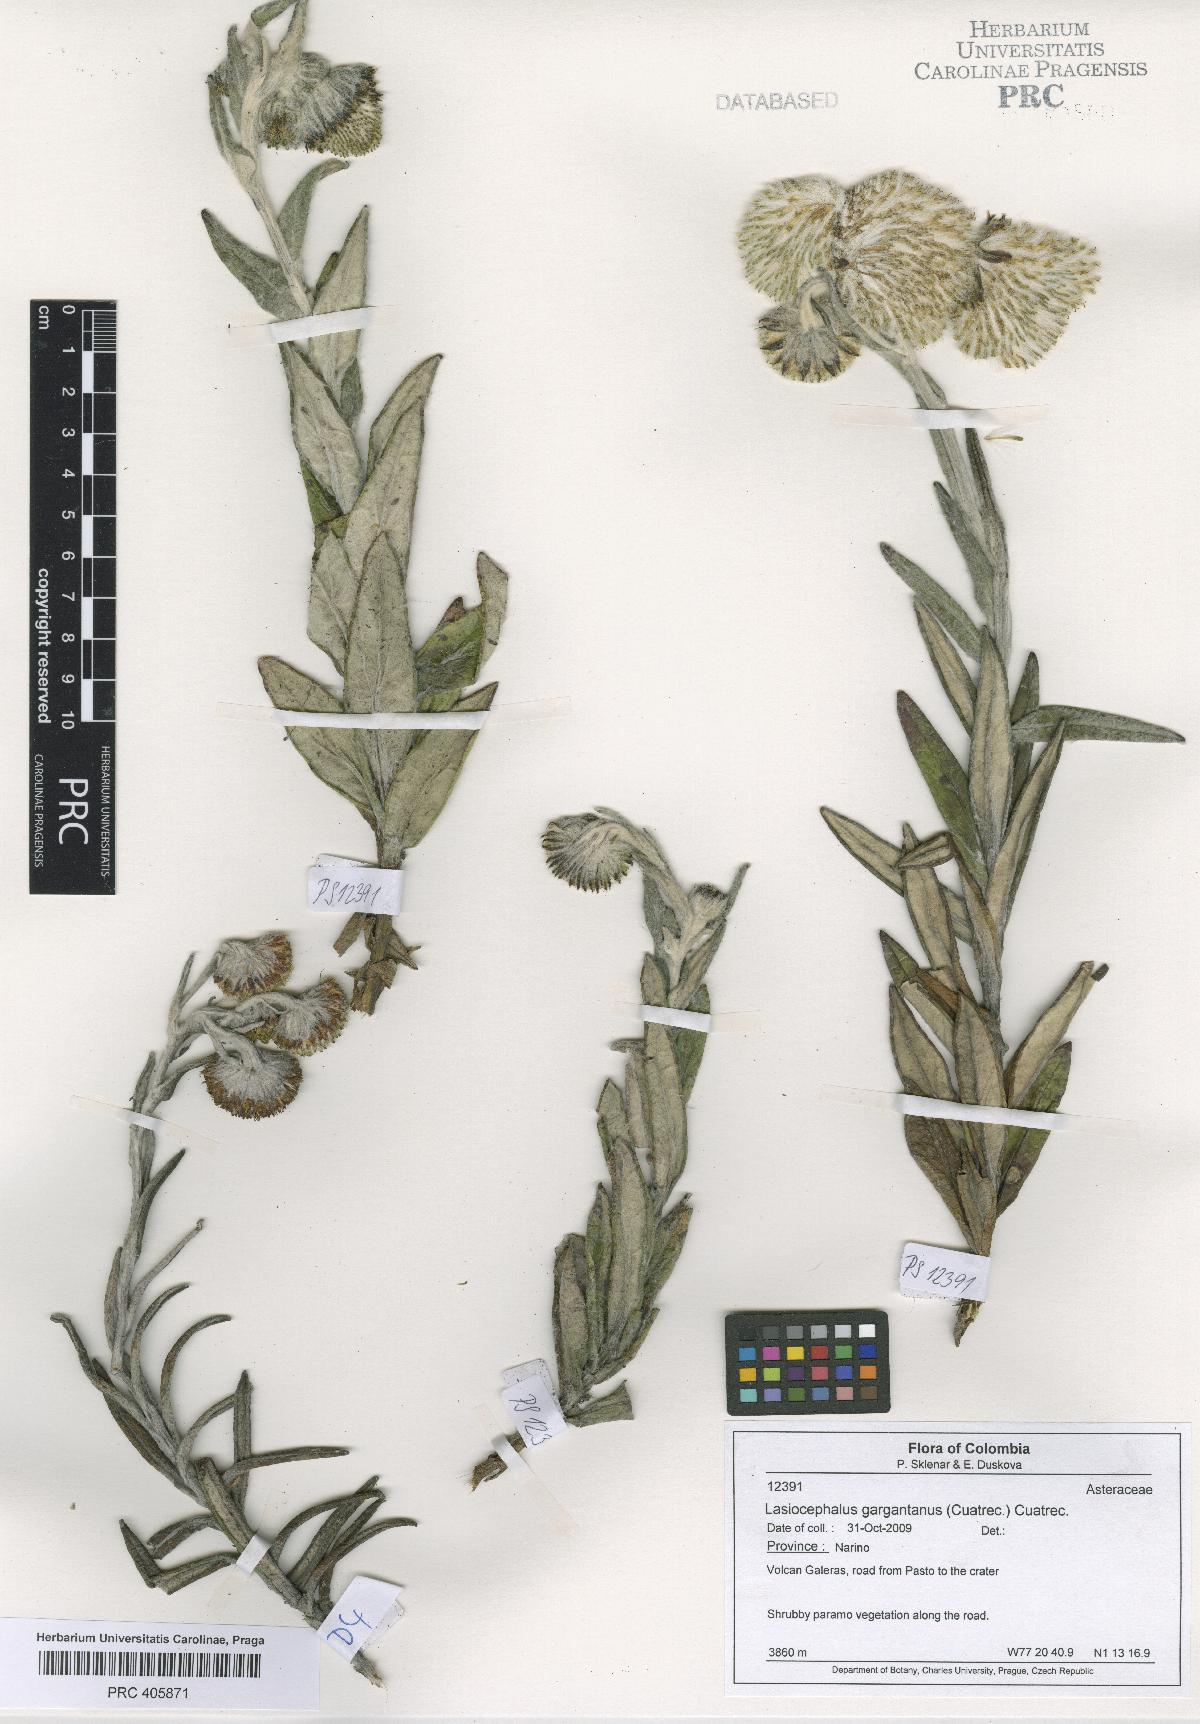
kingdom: Plantae
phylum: Tracheophyta
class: Magnoliopsida
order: Asterales
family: Asteraceae
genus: Aetheolaena
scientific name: Aetheolaena gargantanus
